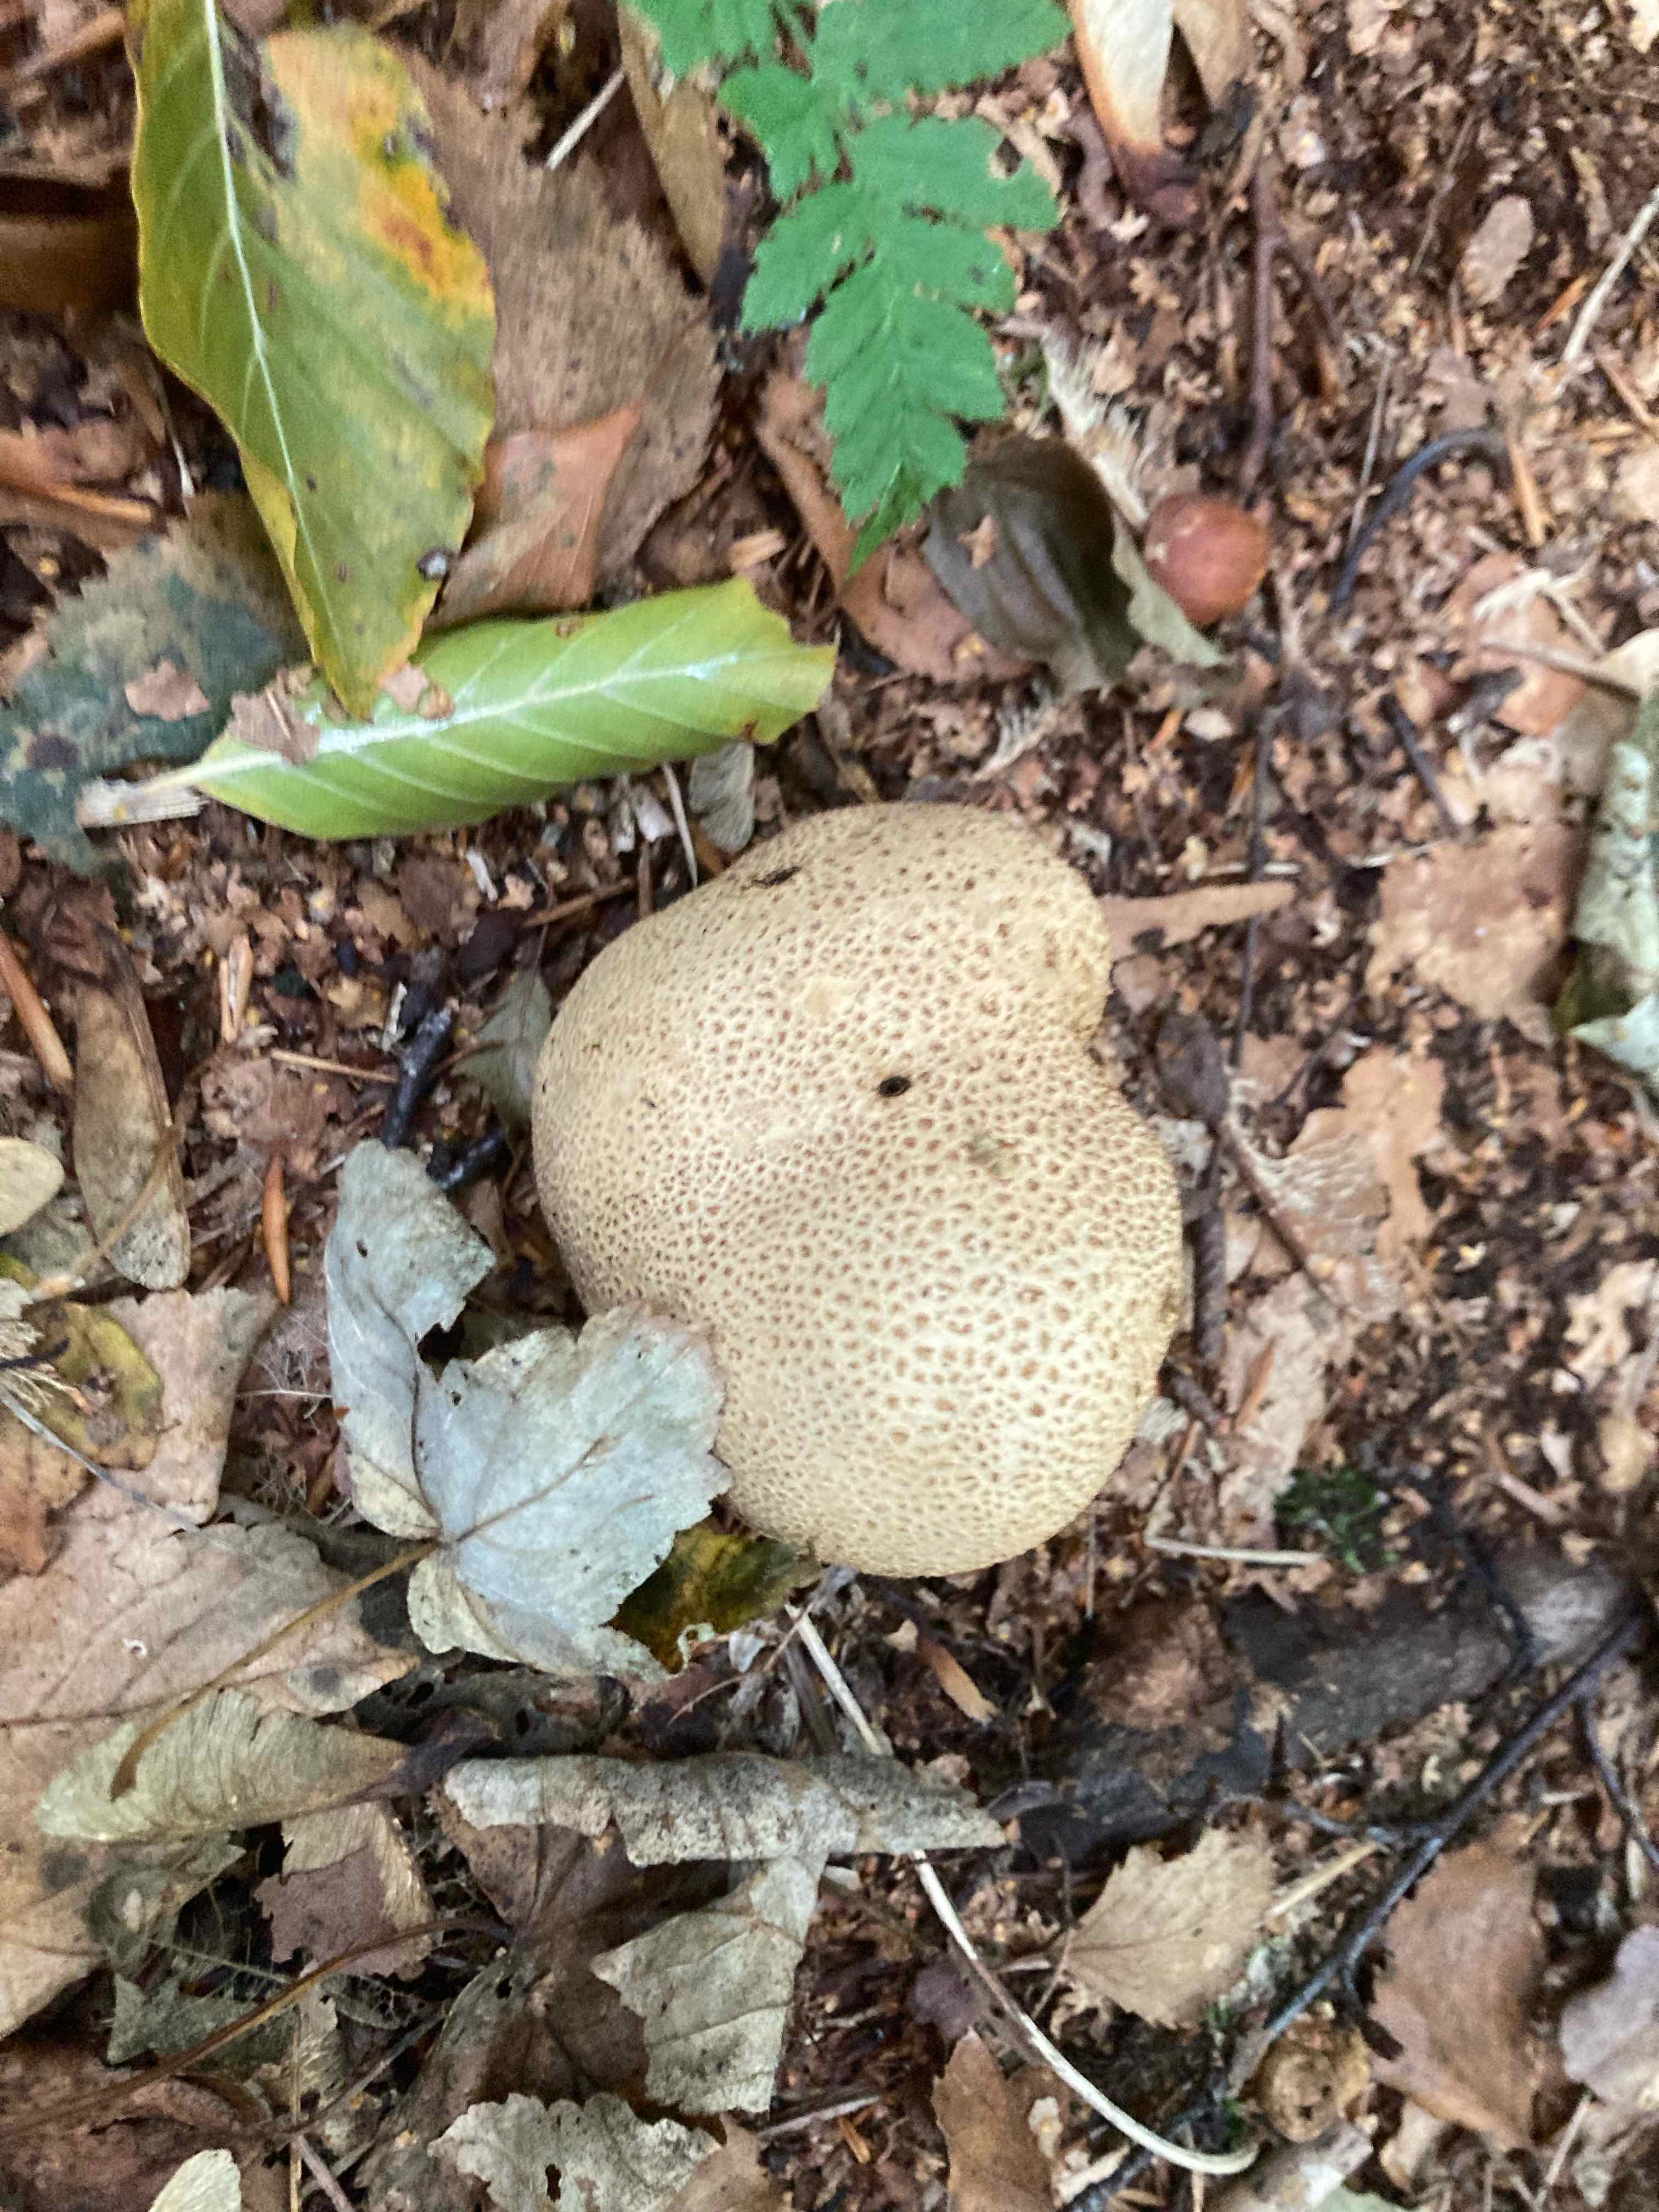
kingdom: Fungi
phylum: Basidiomycota
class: Agaricomycetes
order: Boletales
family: Sclerodermataceae
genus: Scleroderma
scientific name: Scleroderma citrinum
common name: almindelig bruskbold
